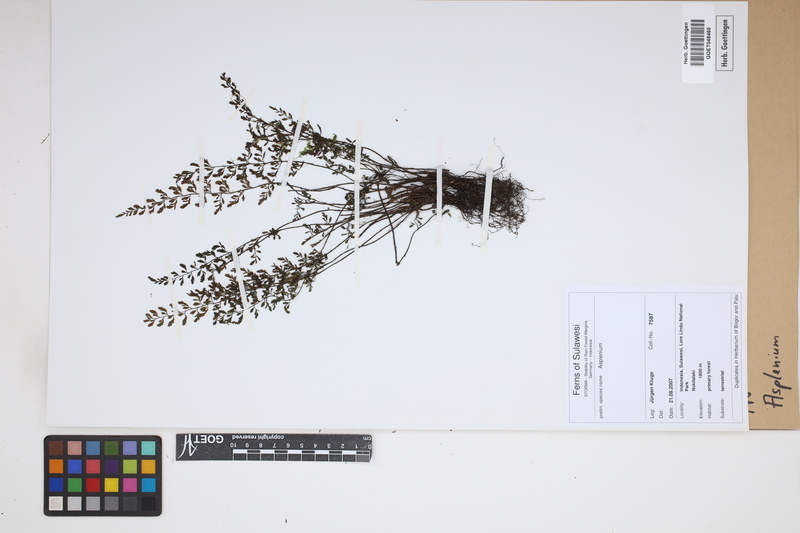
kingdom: Plantae
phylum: Tracheophyta
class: Polypodiopsida
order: Polypodiales
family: Aspleniaceae
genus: Asplenium
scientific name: Asplenium
